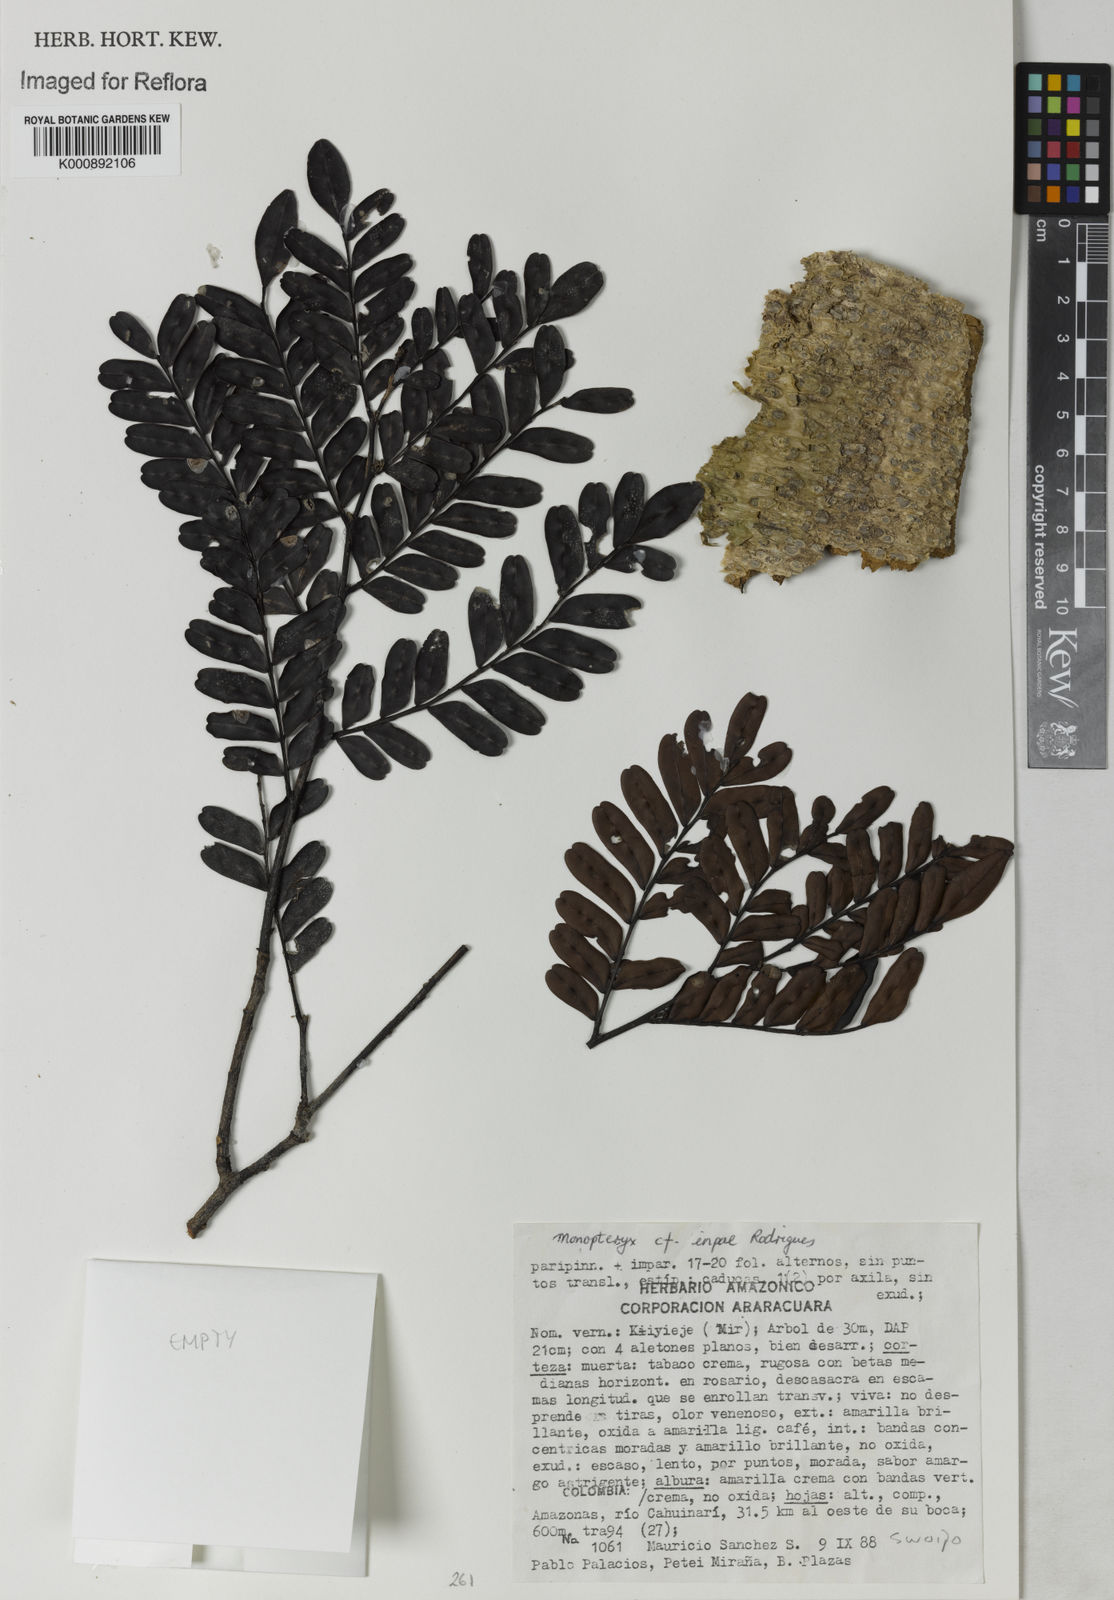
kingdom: Plantae
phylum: Tracheophyta
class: Magnoliopsida
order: Fabales
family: Fabaceae
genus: Monopteryx
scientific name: Monopteryx inpae
